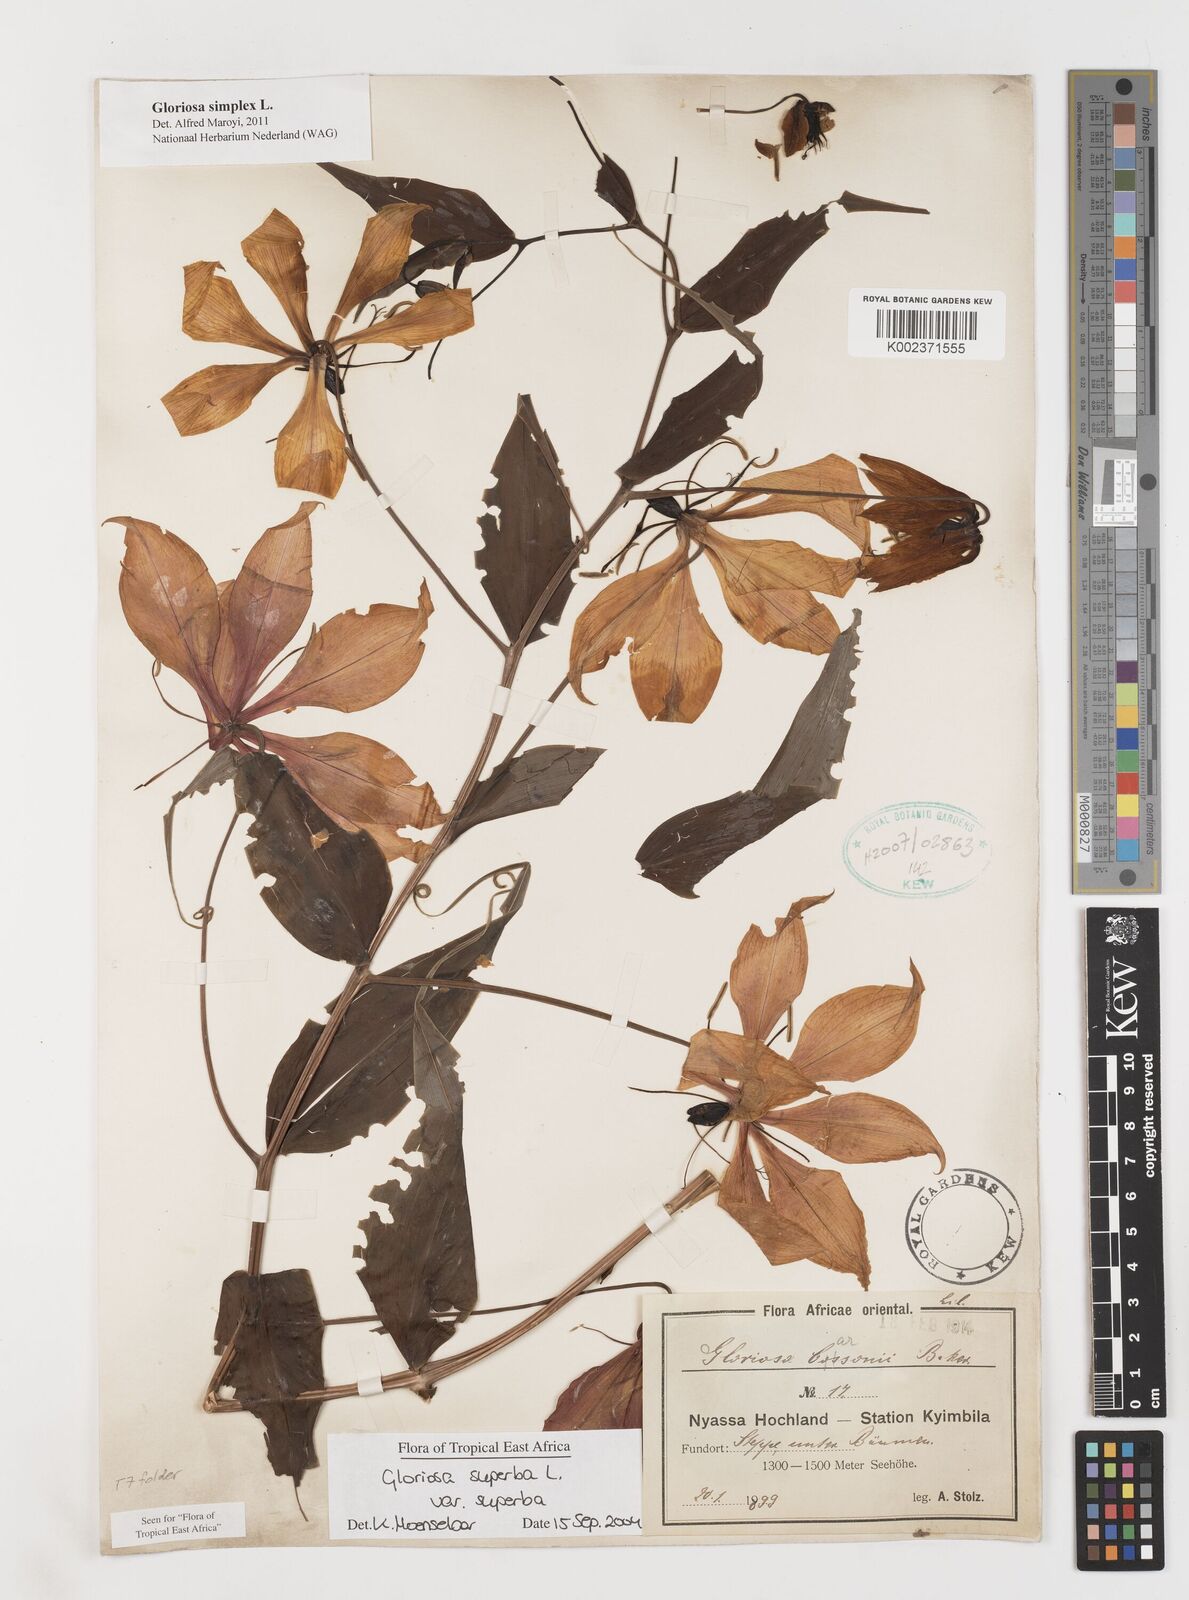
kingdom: Plantae
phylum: Tracheophyta
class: Liliopsida
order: Liliales
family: Colchicaceae
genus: Gloriosa
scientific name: Gloriosa simplex
